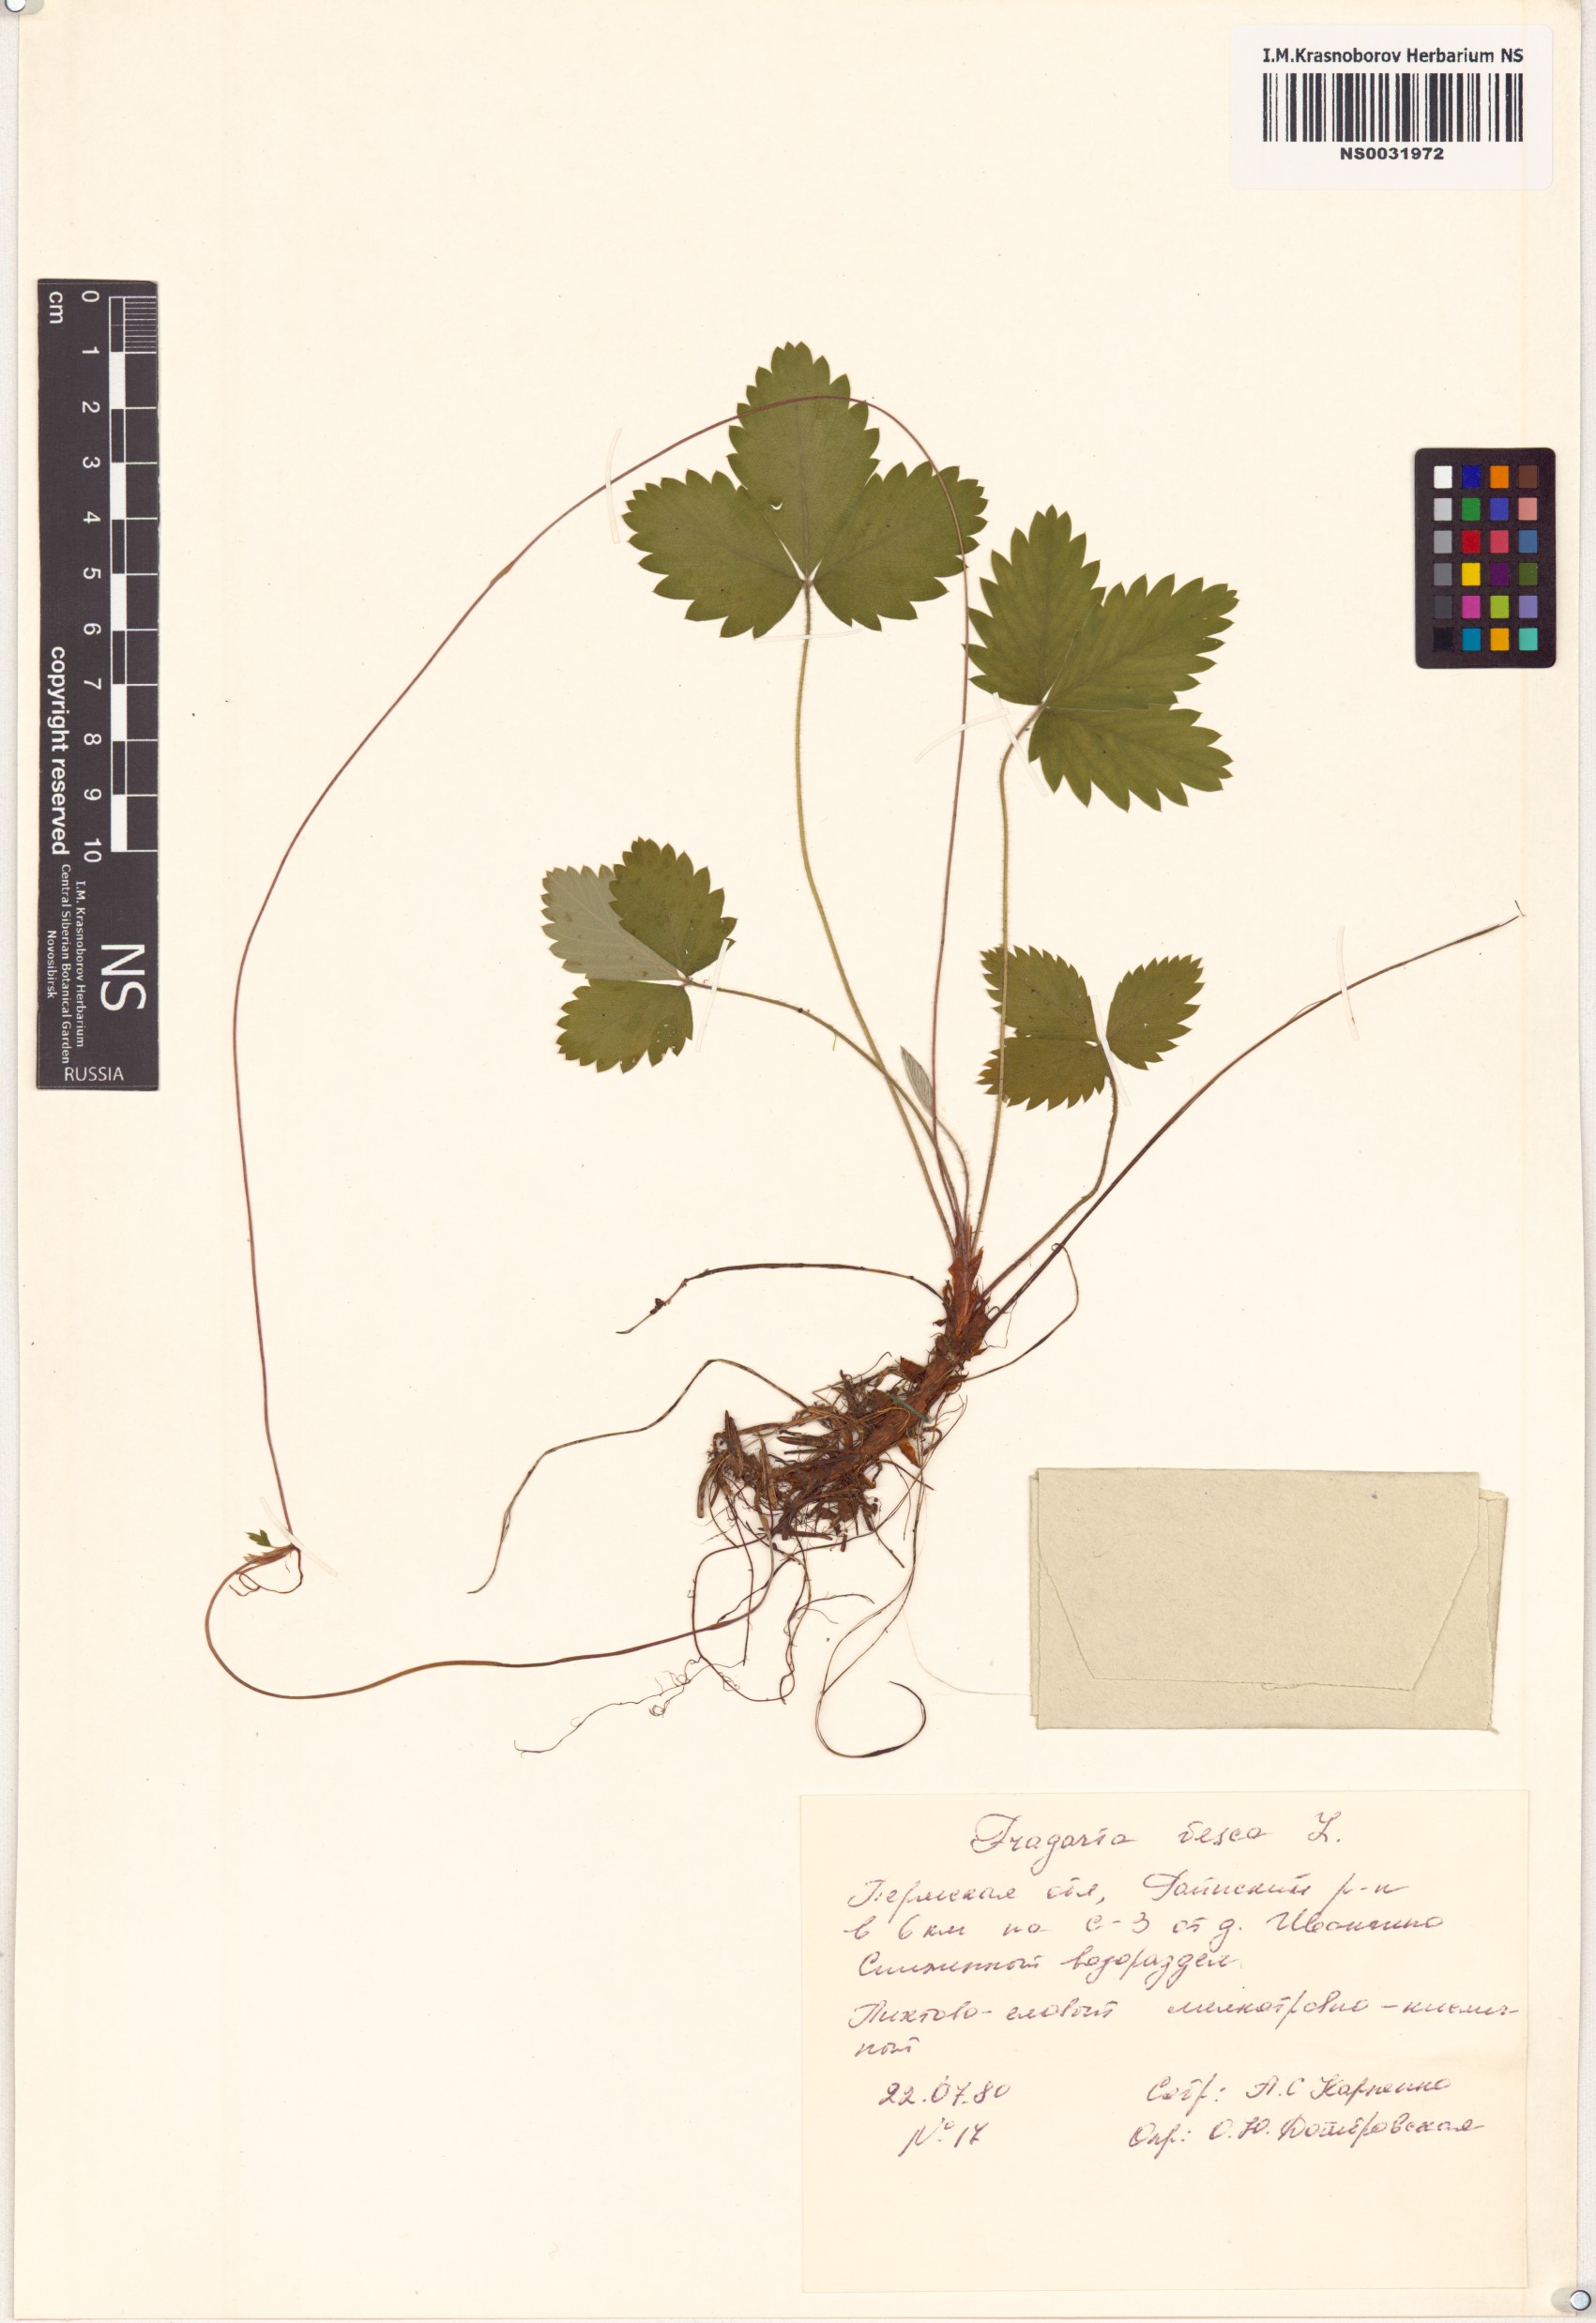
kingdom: Plantae
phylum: Tracheophyta
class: Magnoliopsida
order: Rosales
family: Rosaceae
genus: Fragaria
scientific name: Fragaria vesca
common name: Wild strawberry
